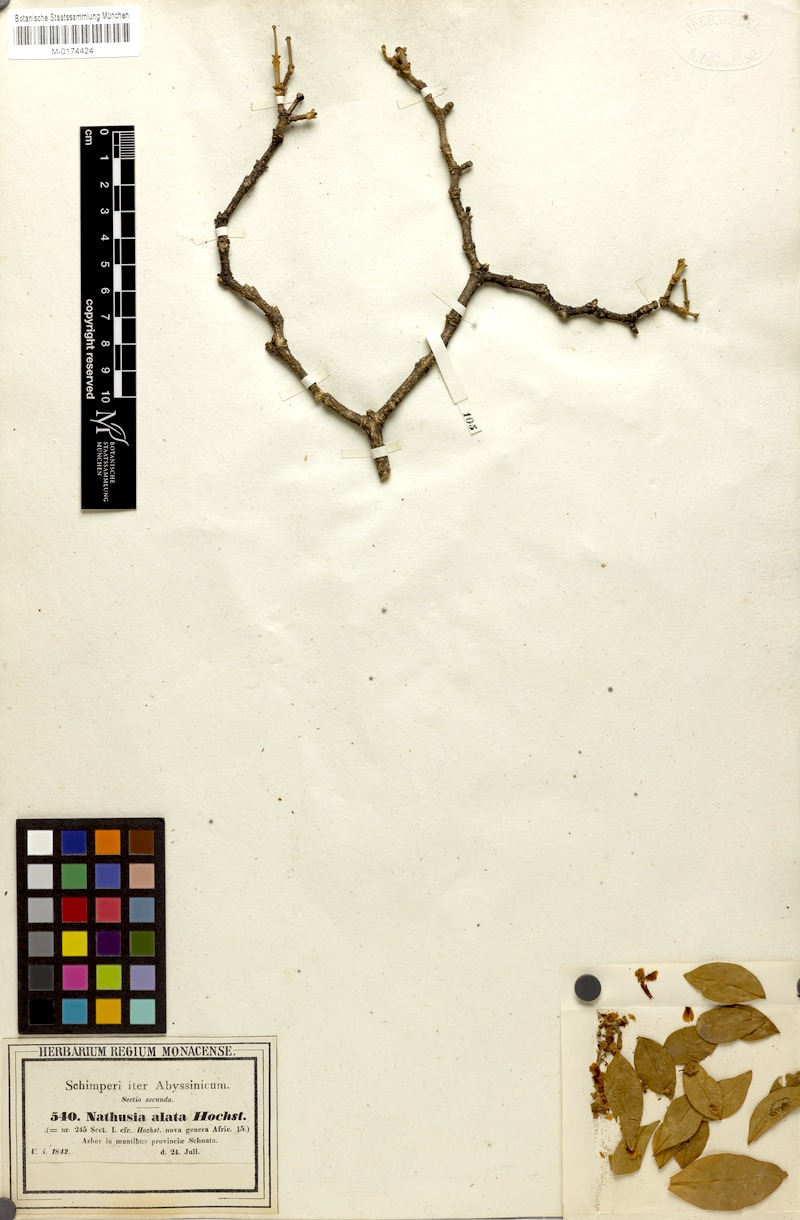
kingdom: Plantae
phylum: Tracheophyta
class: Magnoliopsida
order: Lamiales
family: Oleaceae
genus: Schrebera
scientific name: Schrebera alata
